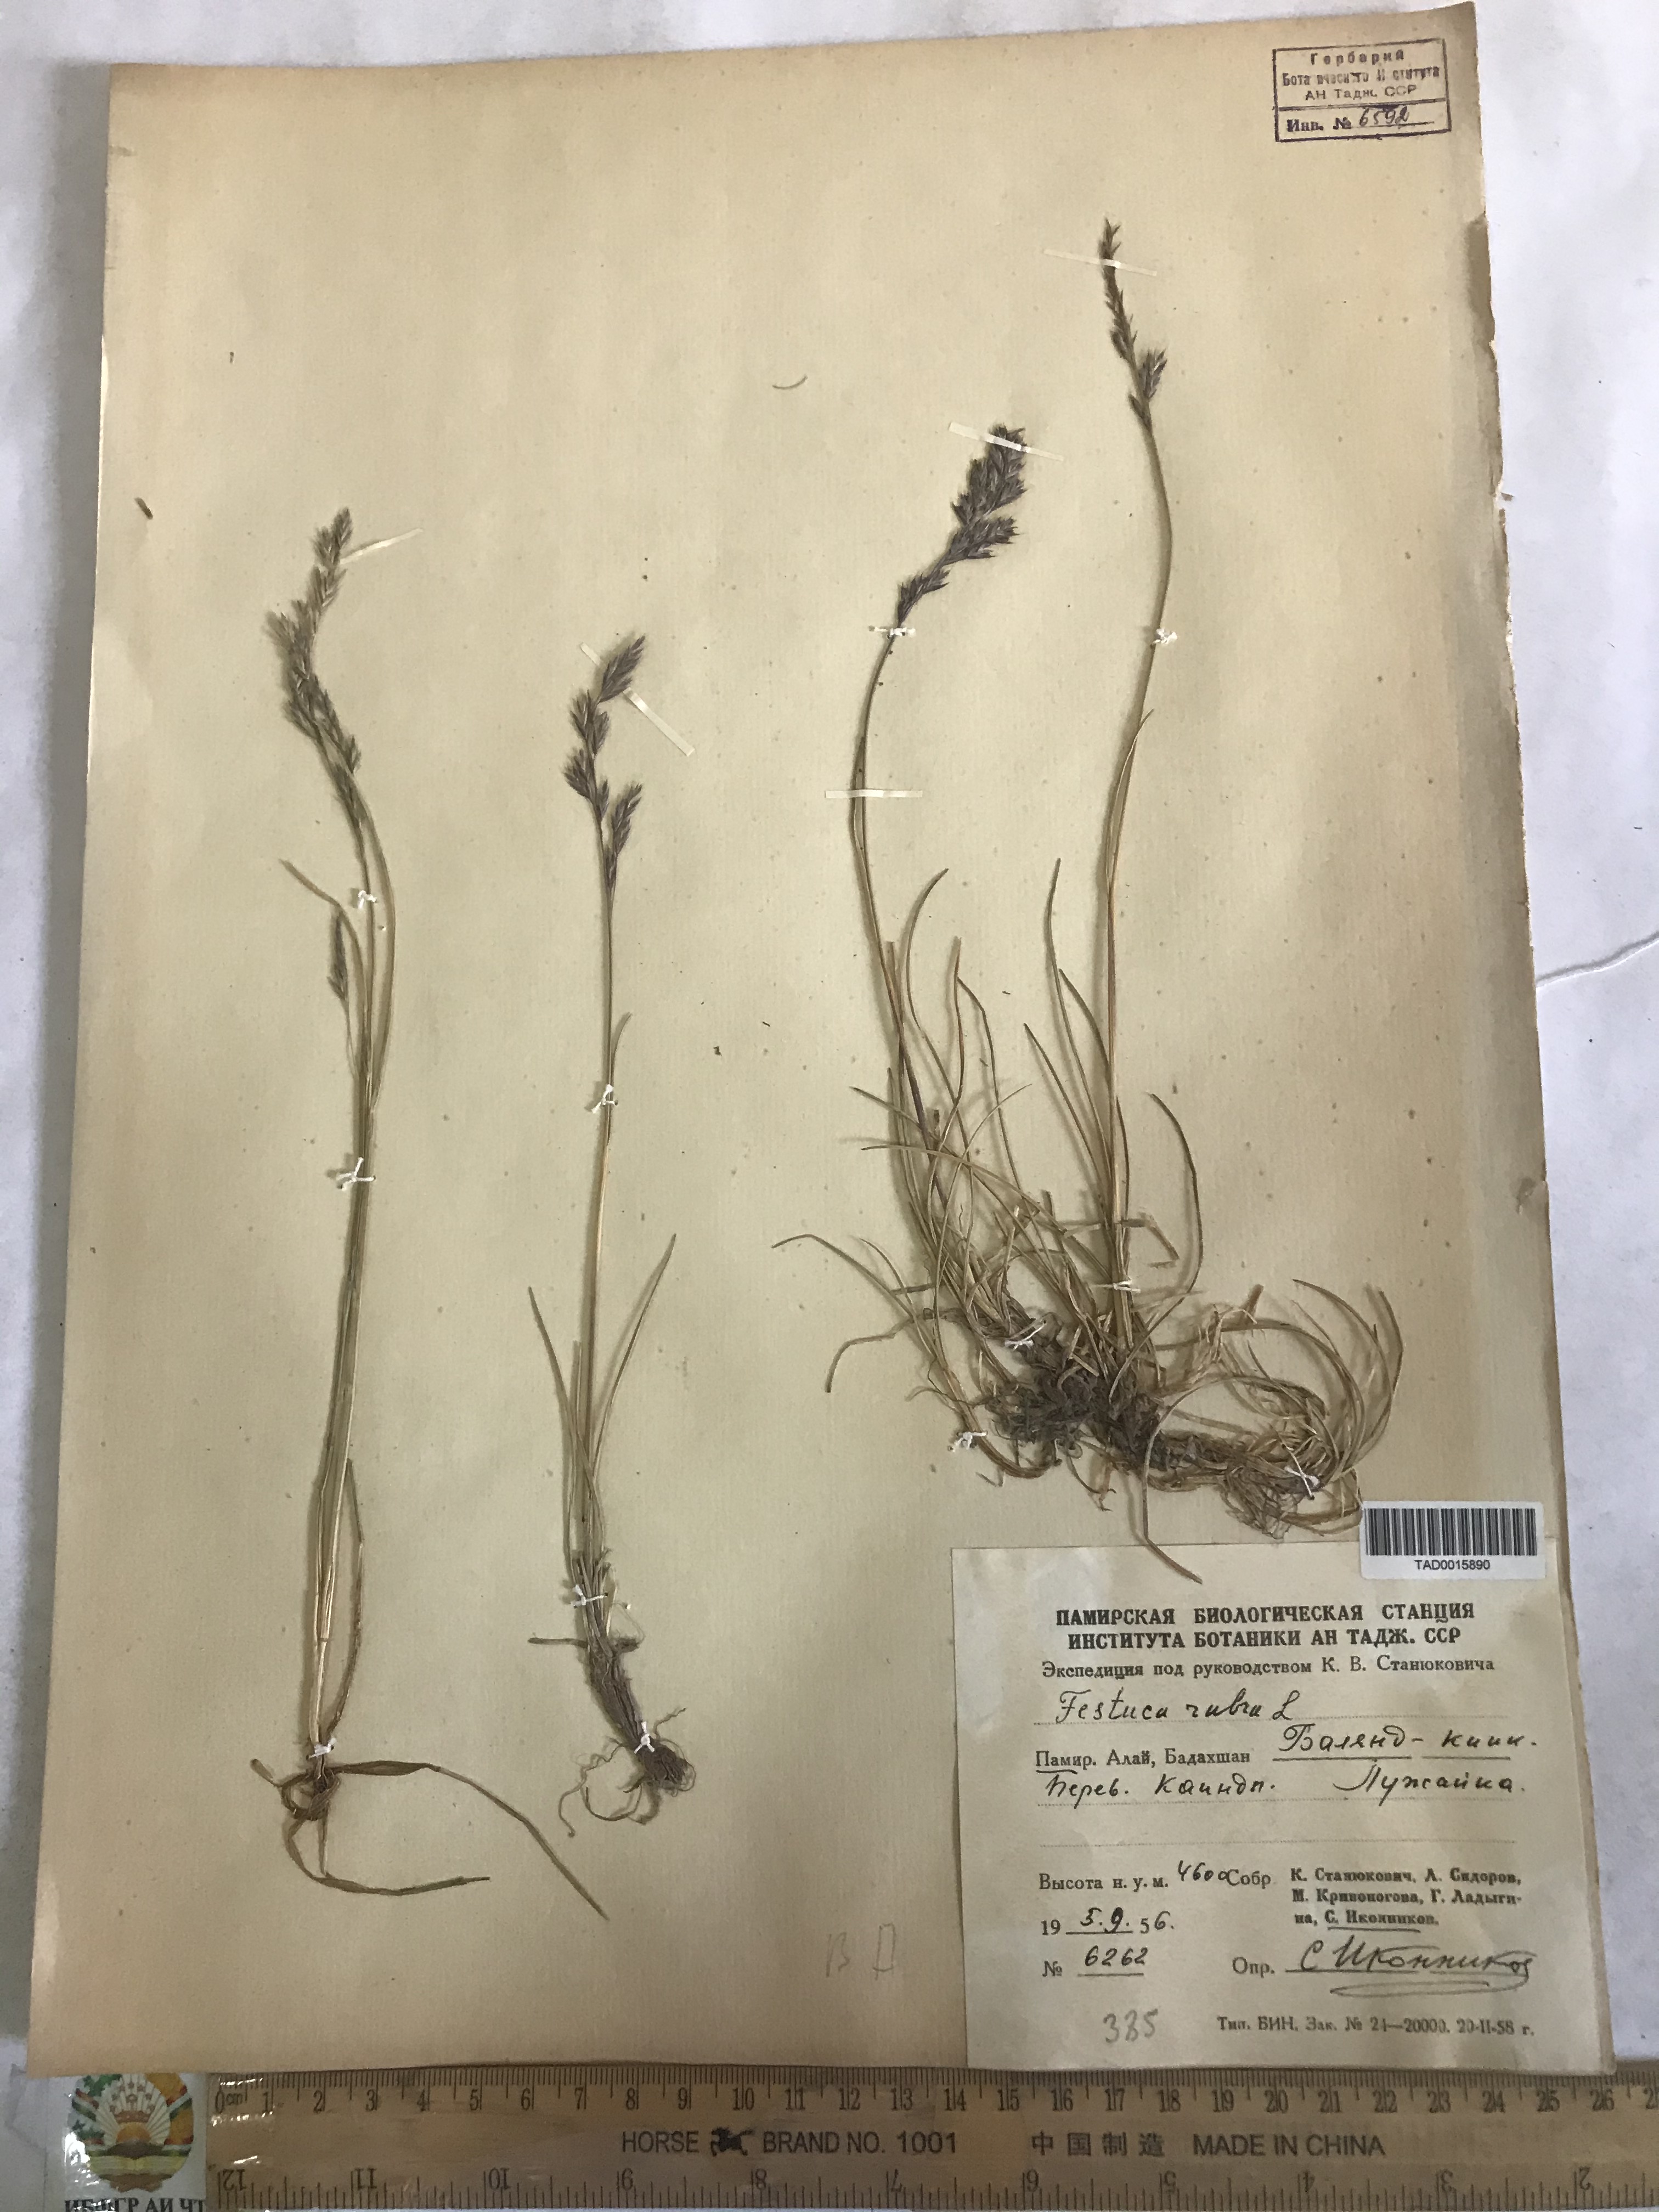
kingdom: Plantae
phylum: Tracheophyta
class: Liliopsida
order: Poales
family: Poaceae
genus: Festuca
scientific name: Festuca rubra
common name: Red fescue
